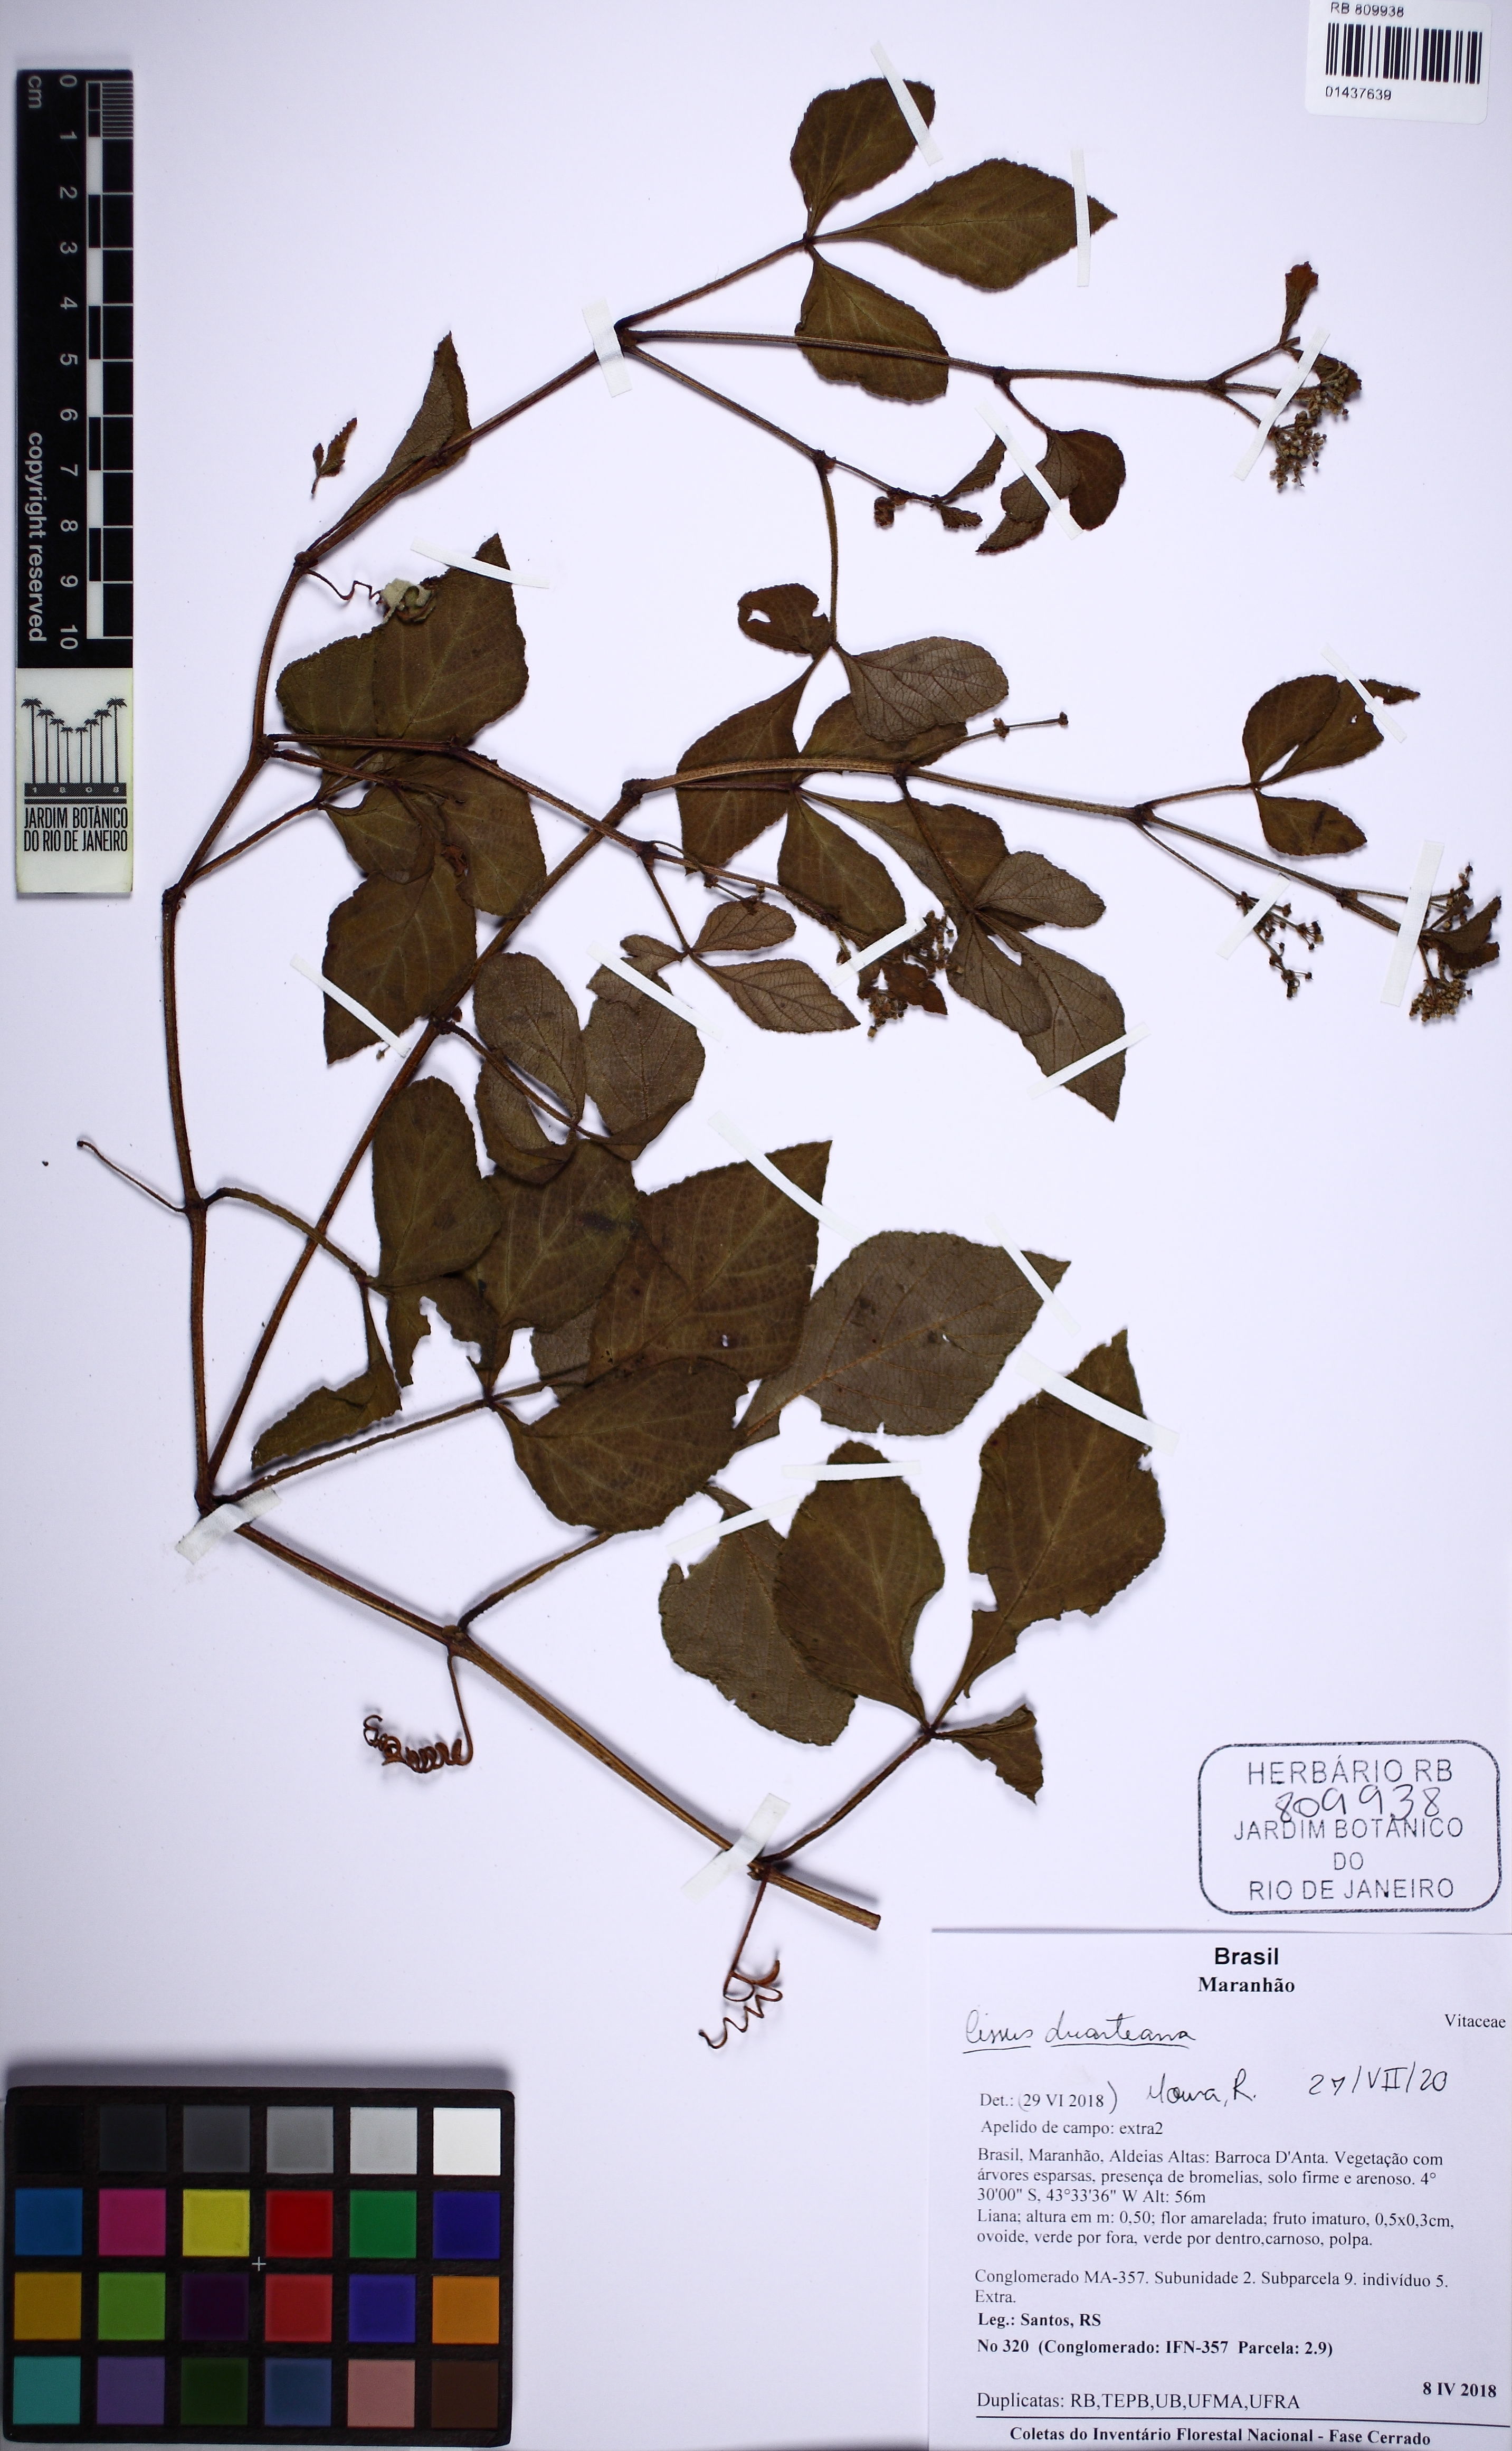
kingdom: Plantae
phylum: Tracheophyta
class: Magnoliopsida
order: Vitales
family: Vitaceae
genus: Cissus
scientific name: Cissus duarteana
